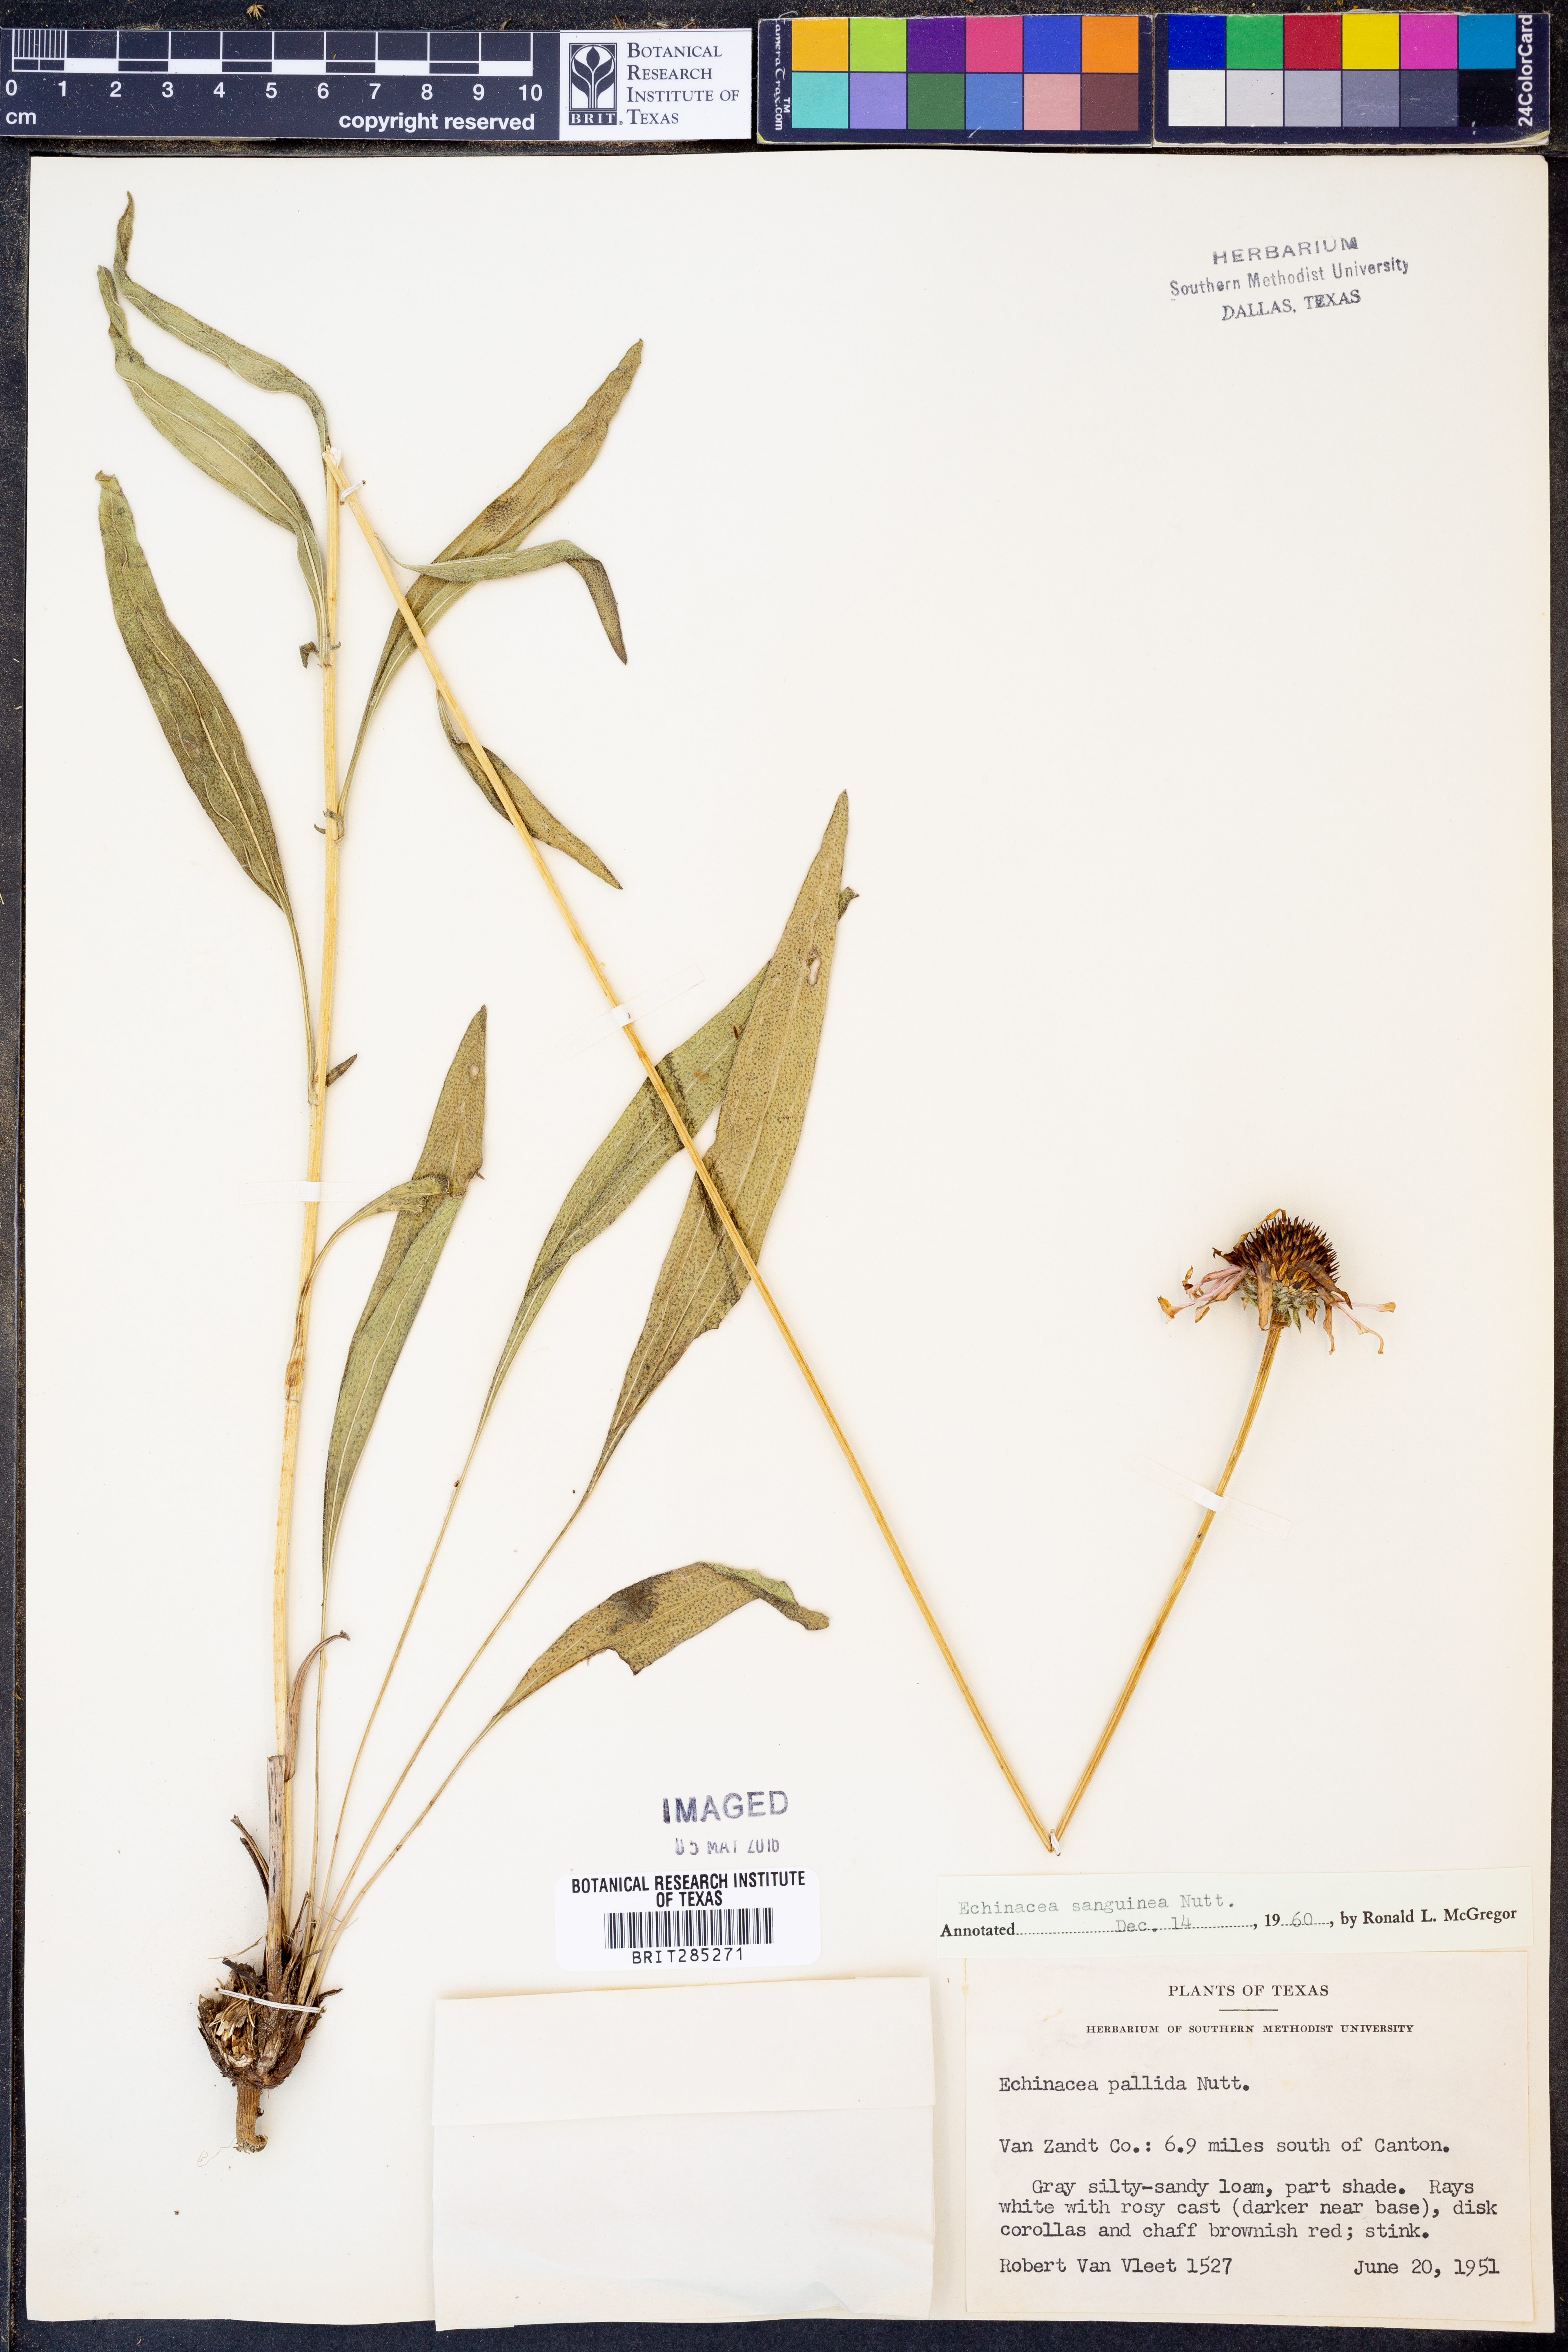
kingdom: Plantae
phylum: Tracheophyta
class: Magnoliopsida
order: Asterales
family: Asteraceae
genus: Echinacea
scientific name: Echinacea sanguinea
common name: Sanguine purple-coneflower
